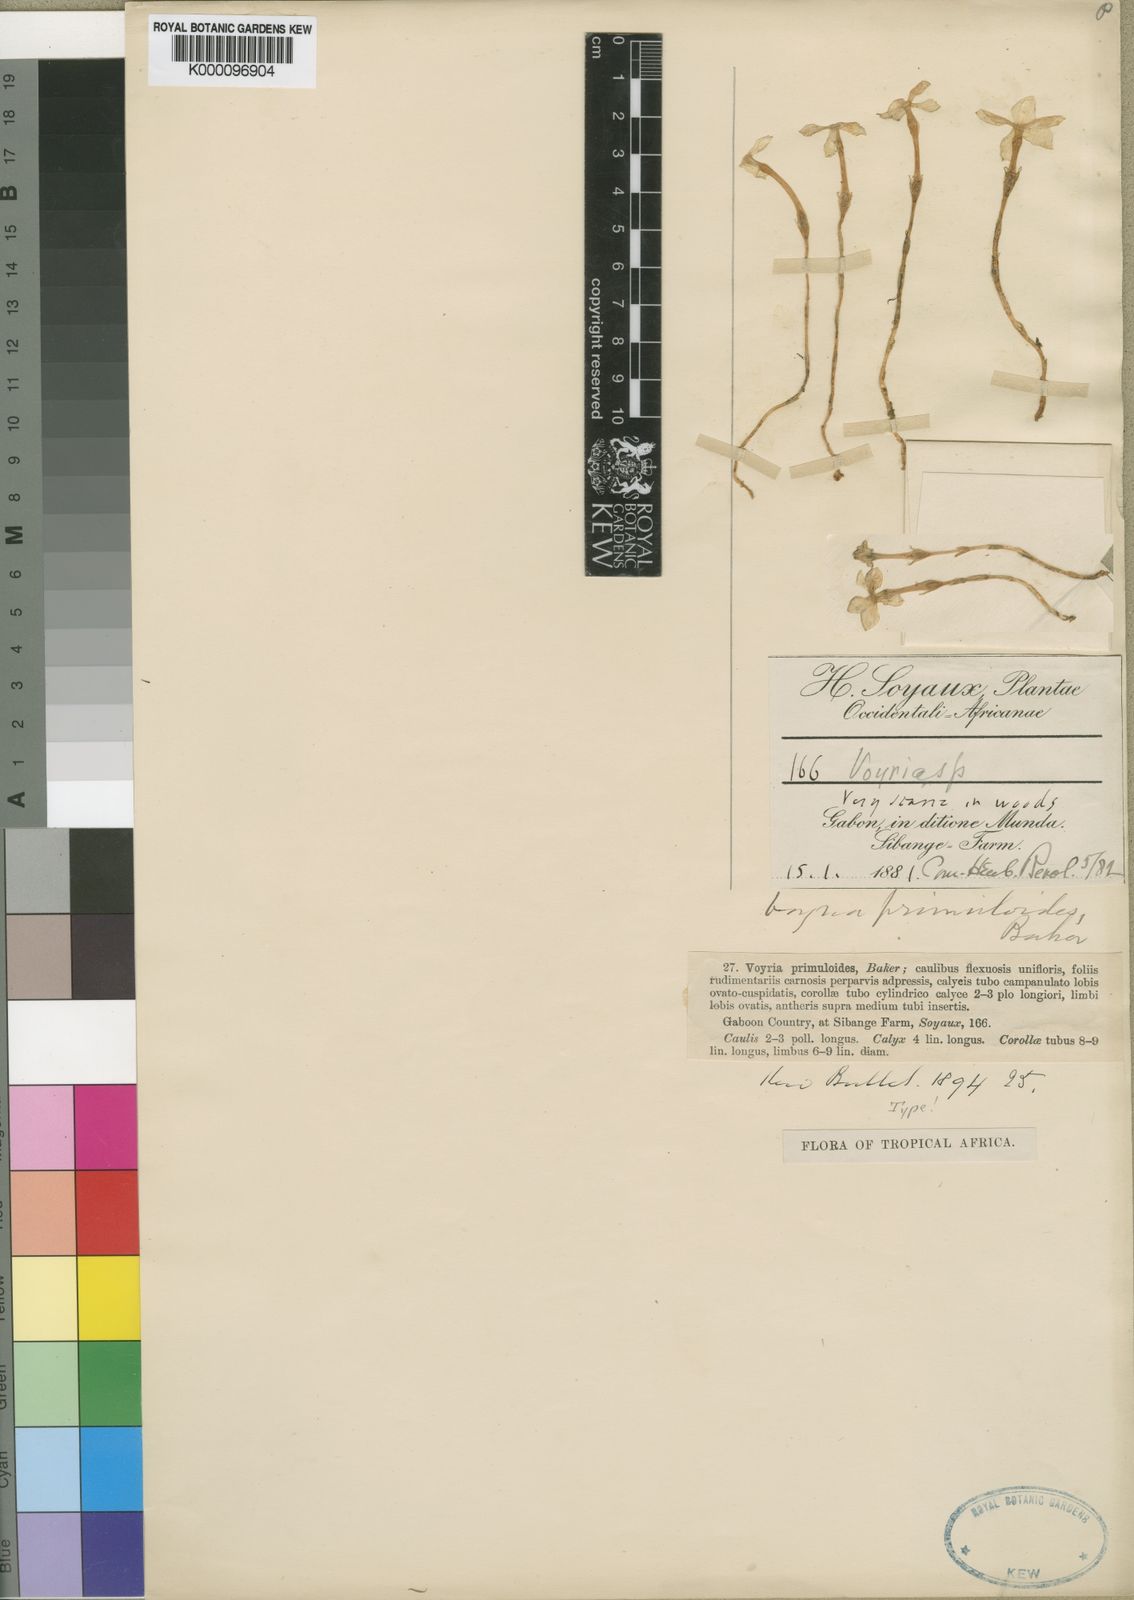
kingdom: Plantae
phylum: Tracheophyta
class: Magnoliopsida
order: Gentianales
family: Gentianaceae
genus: Voyria
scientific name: Voyria primuloides
